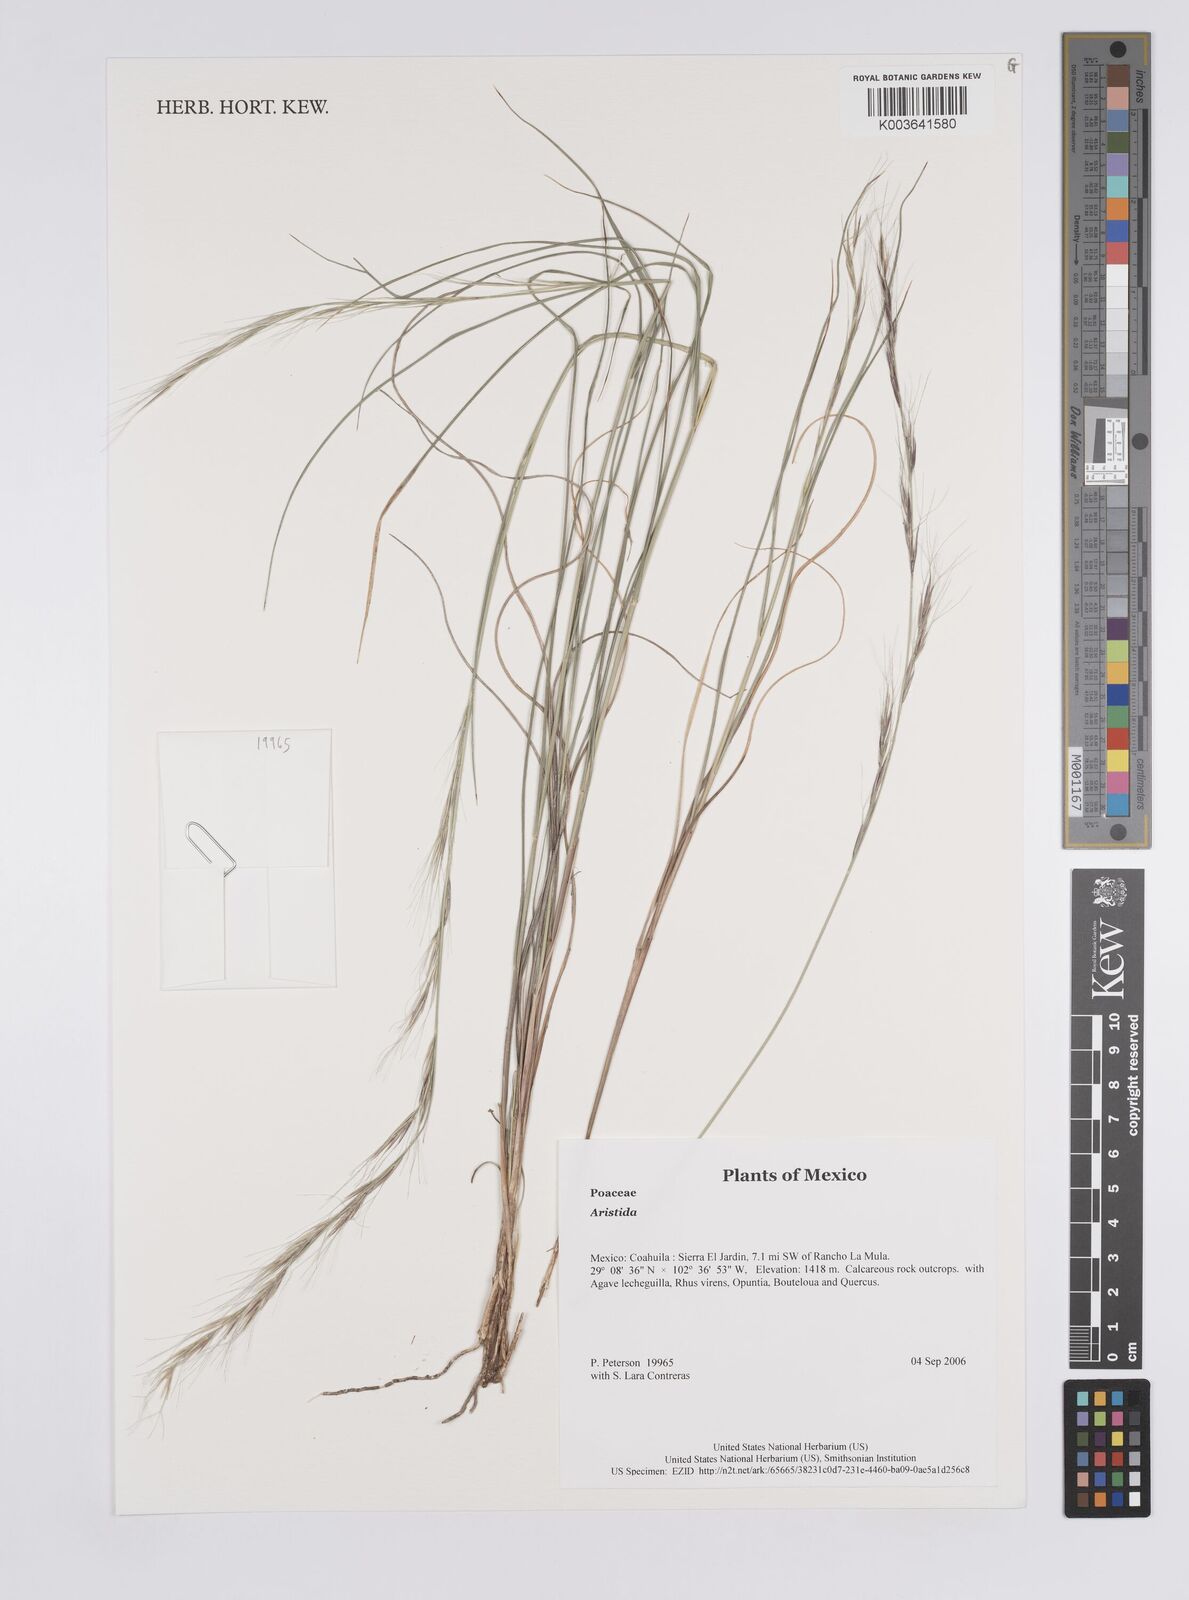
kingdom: Plantae
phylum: Tracheophyta
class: Liliopsida
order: Poales
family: Poaceae
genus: Aristida
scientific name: Aristida
